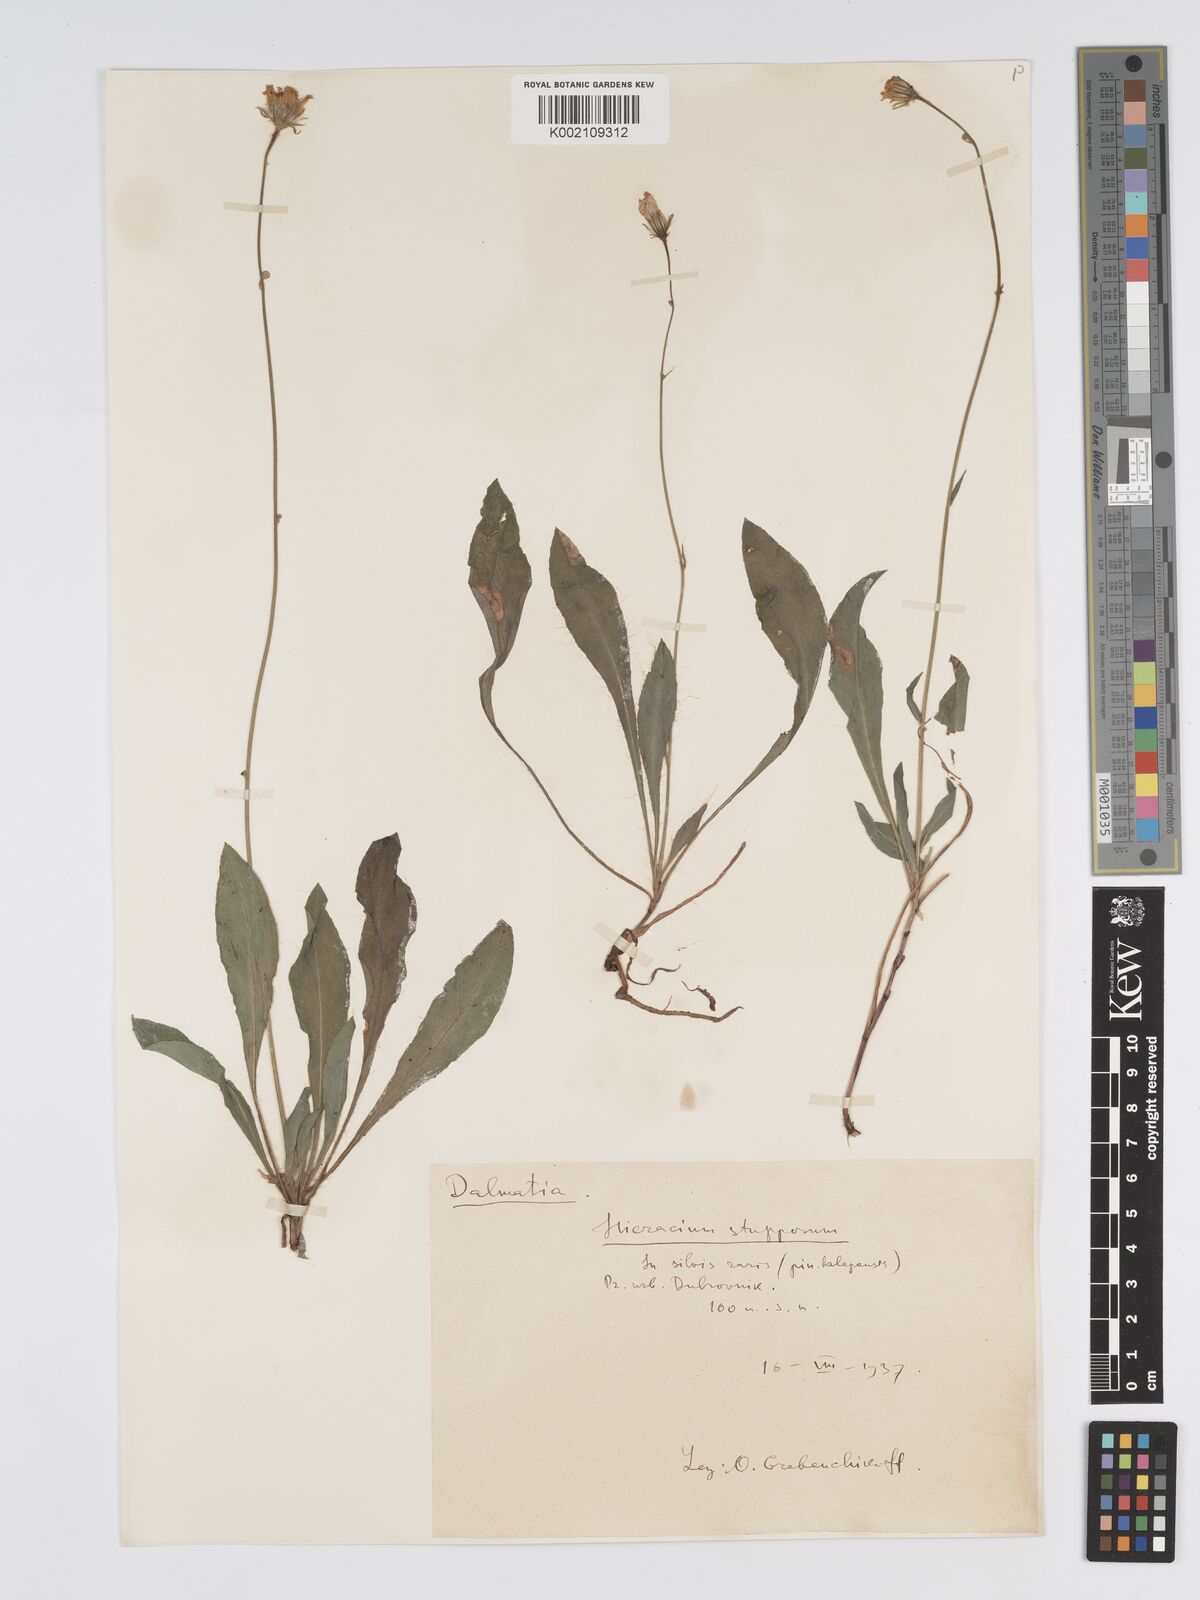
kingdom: Plantae
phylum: Tracheophyta
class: Magnoliopsida
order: Asterales
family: Asteraceae
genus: Hieracium
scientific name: Hieracium heterogynum
